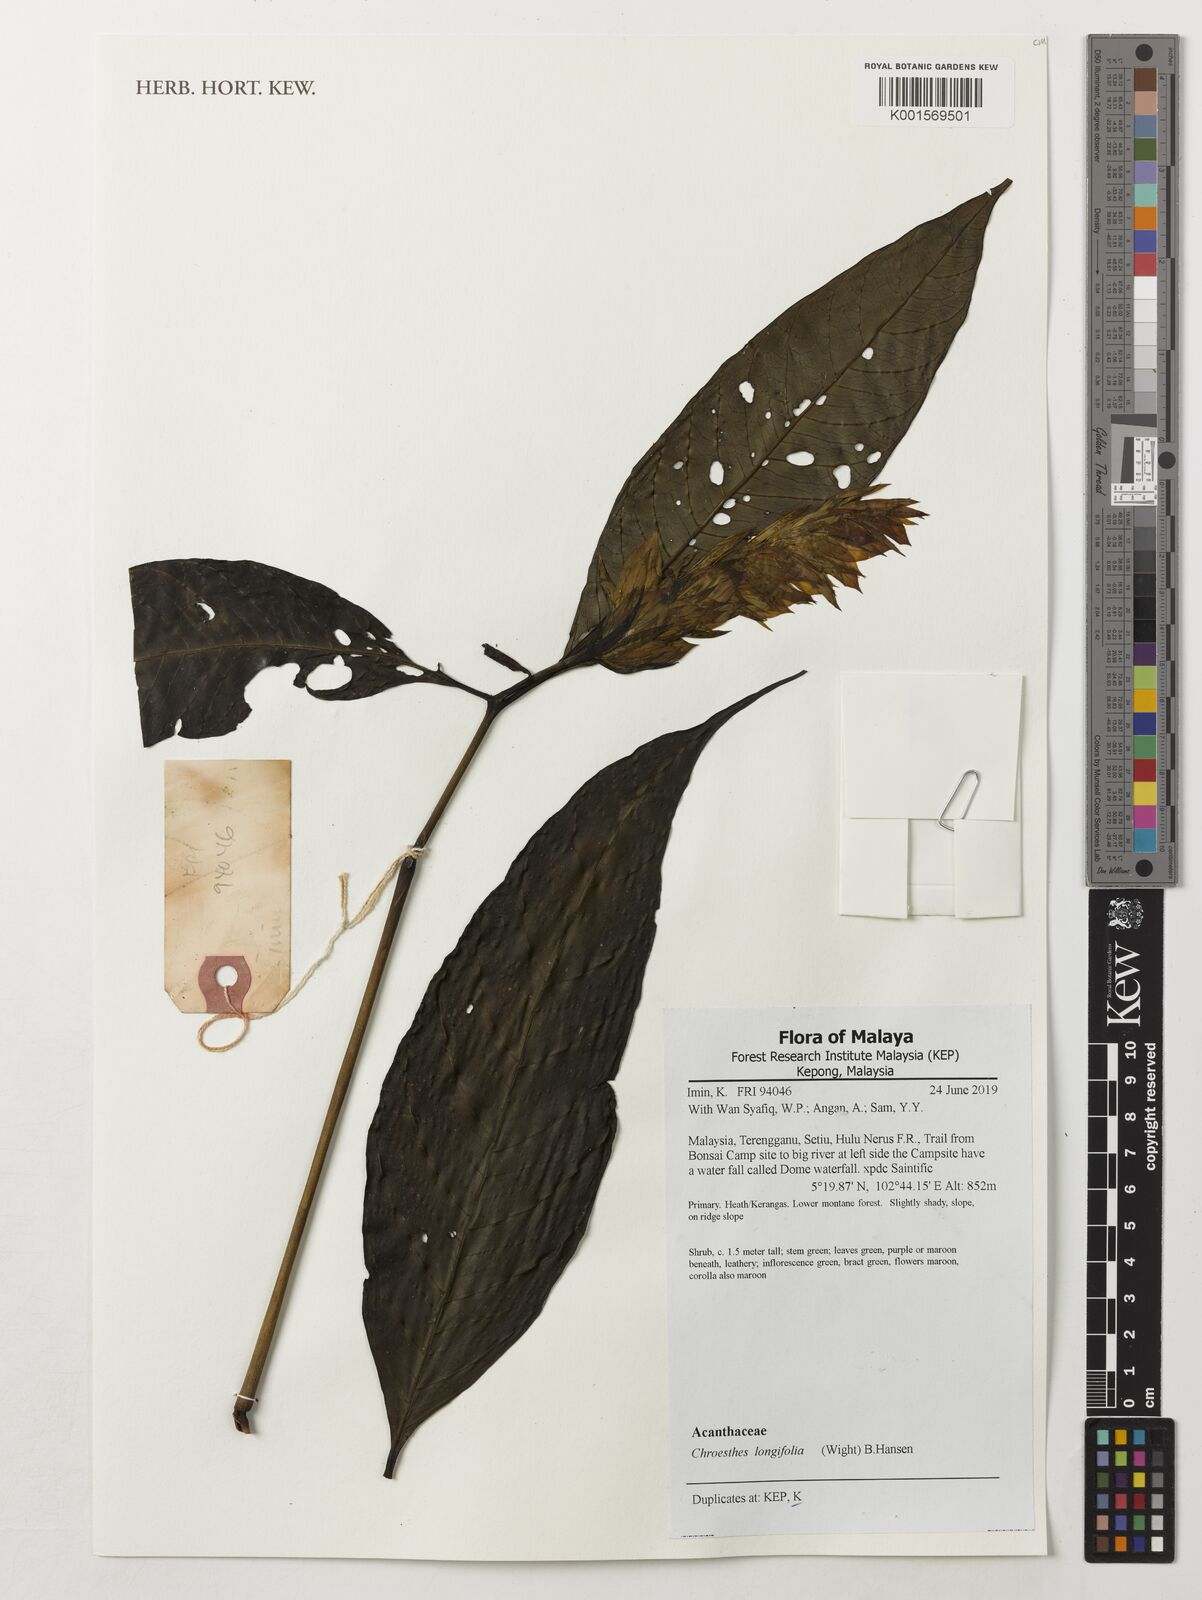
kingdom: Plantae
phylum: Tracheophyta
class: Magnoliopsida
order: Lamiales
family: Acanthaceae
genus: Chroesthes
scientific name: Chroesthes longifolia
